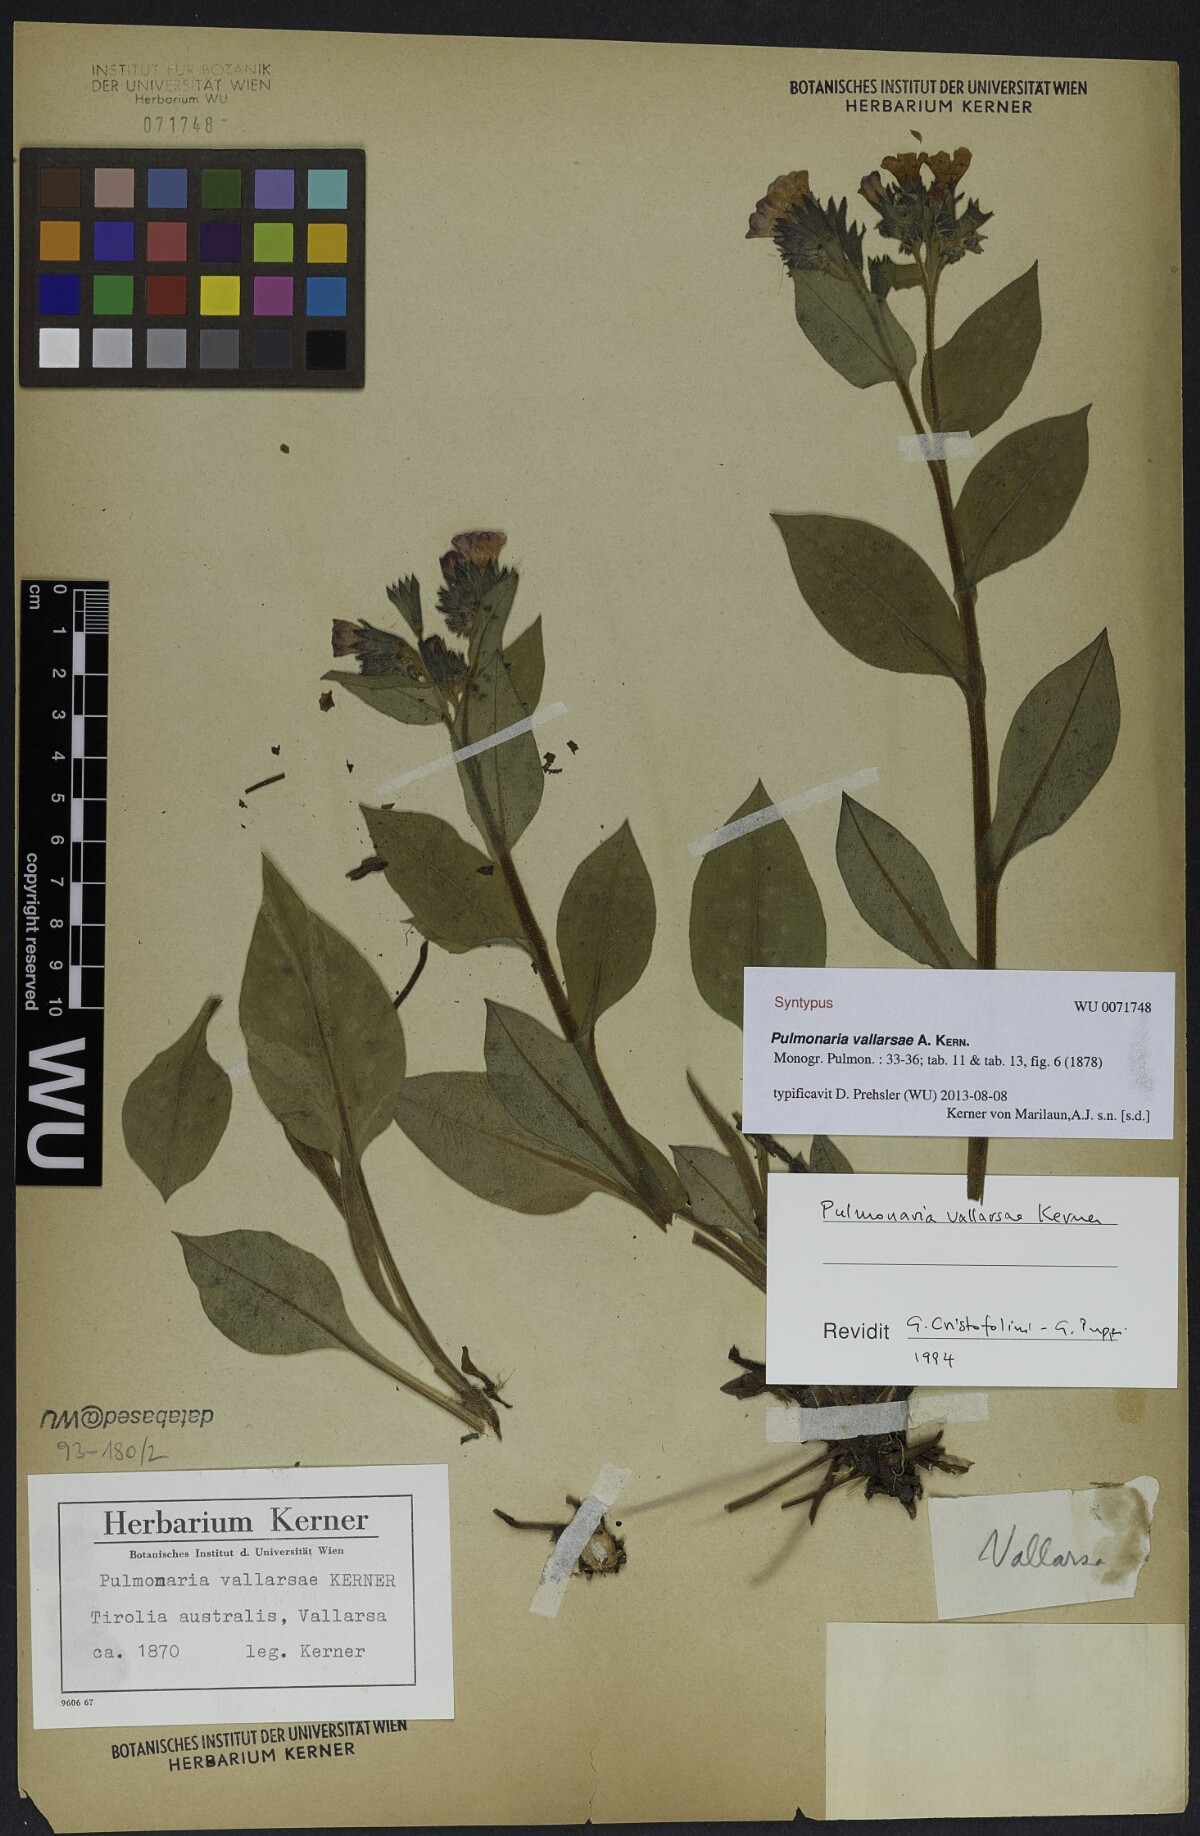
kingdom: Plantae
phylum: Tracheophyta
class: Magnoliopsida
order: Boraginales
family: Boraginaceae
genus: Pulmonaria
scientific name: Pulmonaria hirta
